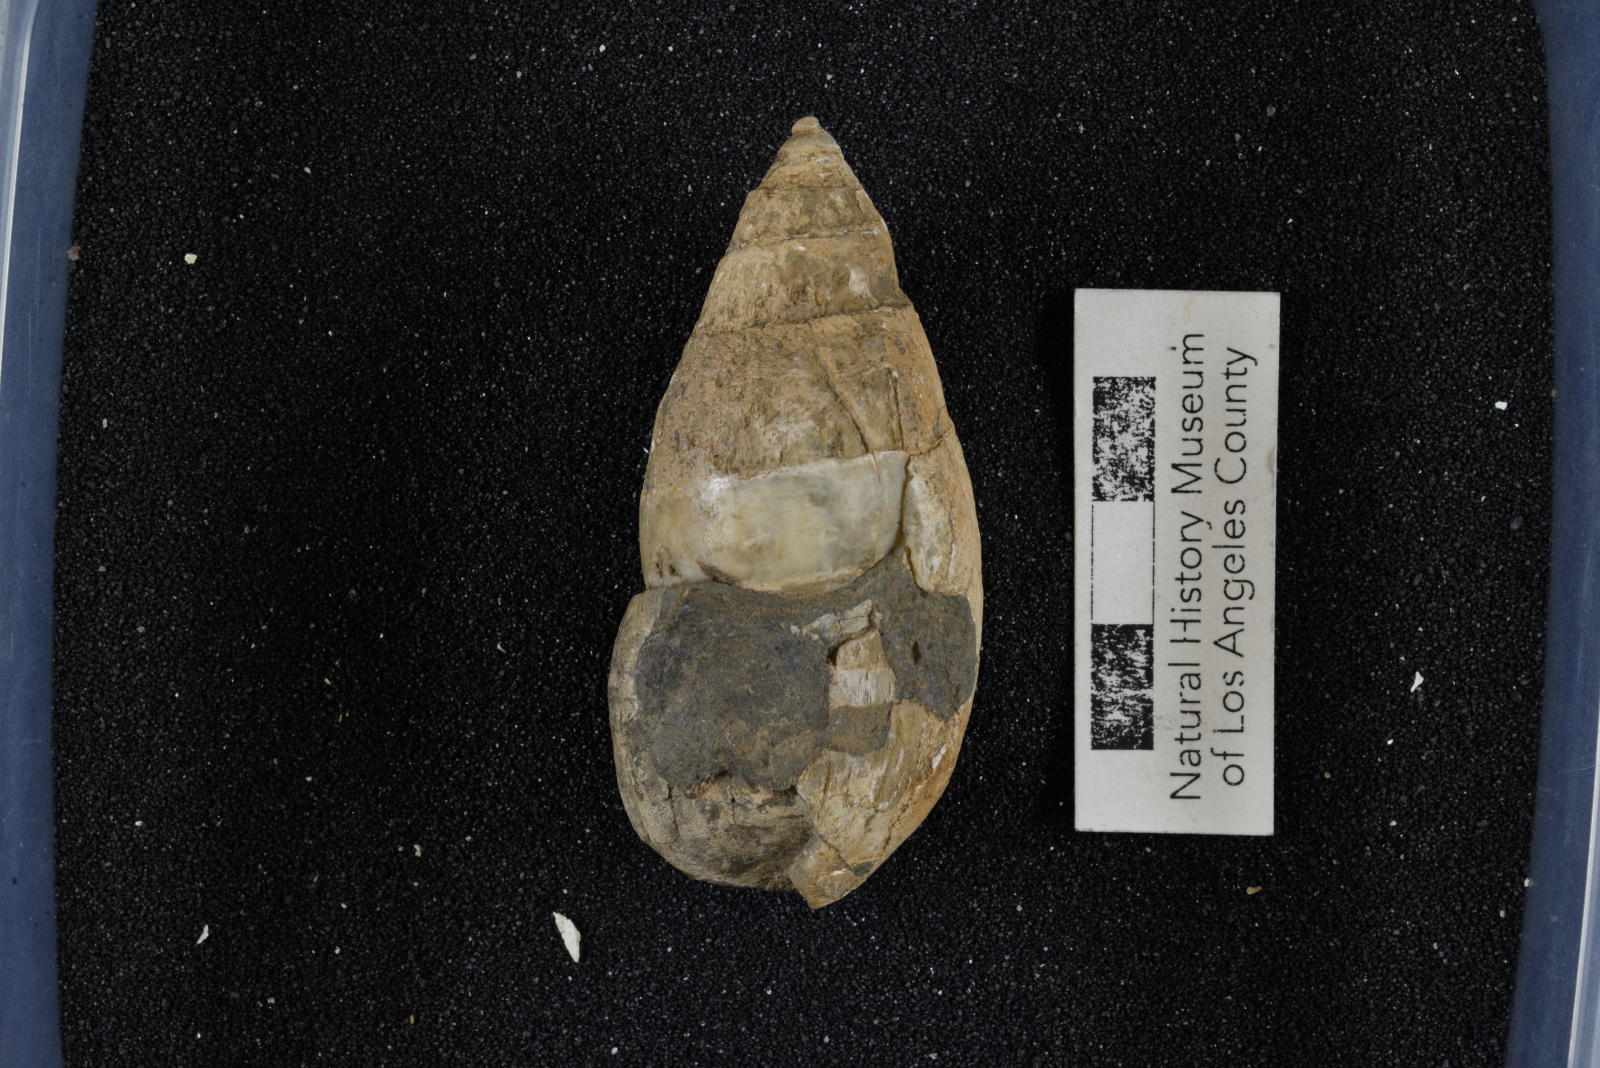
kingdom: Animalia
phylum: Mollusca
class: Gastropoda
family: Pseudomelaniidae
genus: Paosia
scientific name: Paosia Acteonina californica
